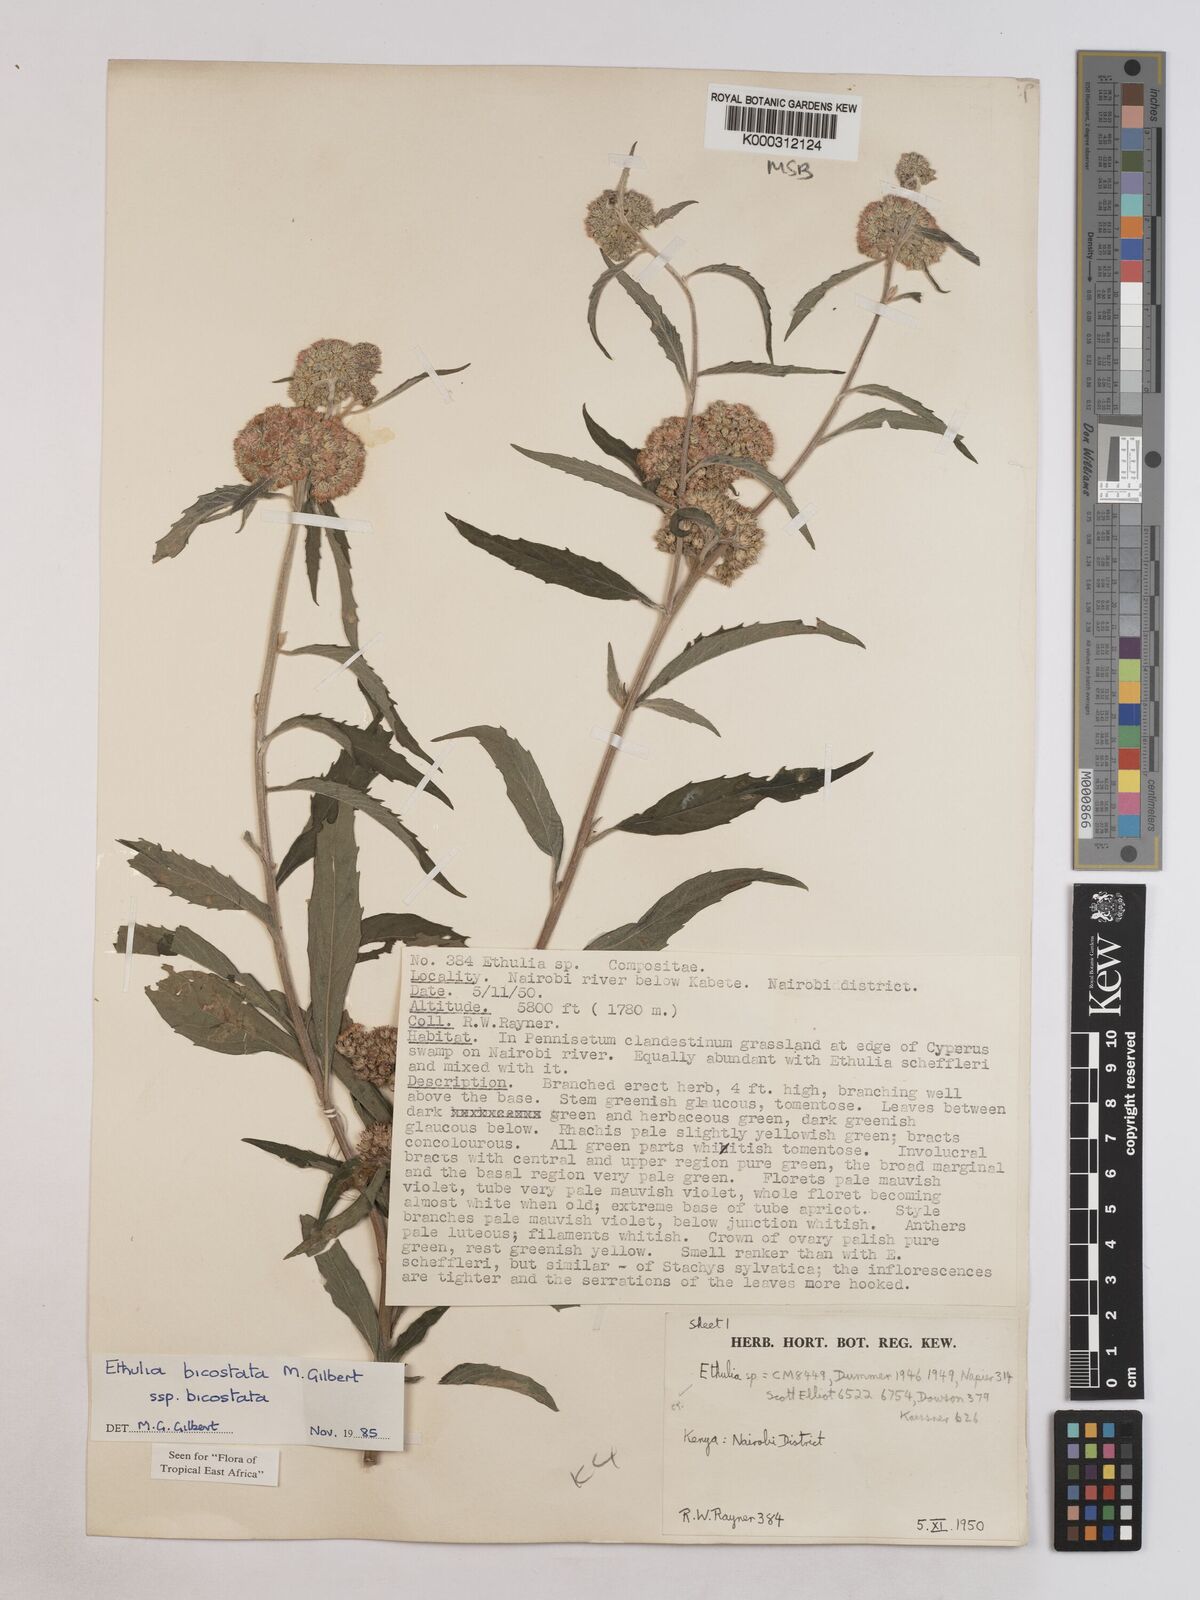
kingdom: Plantae
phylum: Tracheophyta
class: Magnoliopsida
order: Asterales
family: Asteraceae
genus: Ethulia
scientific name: Ethulia bicostata
